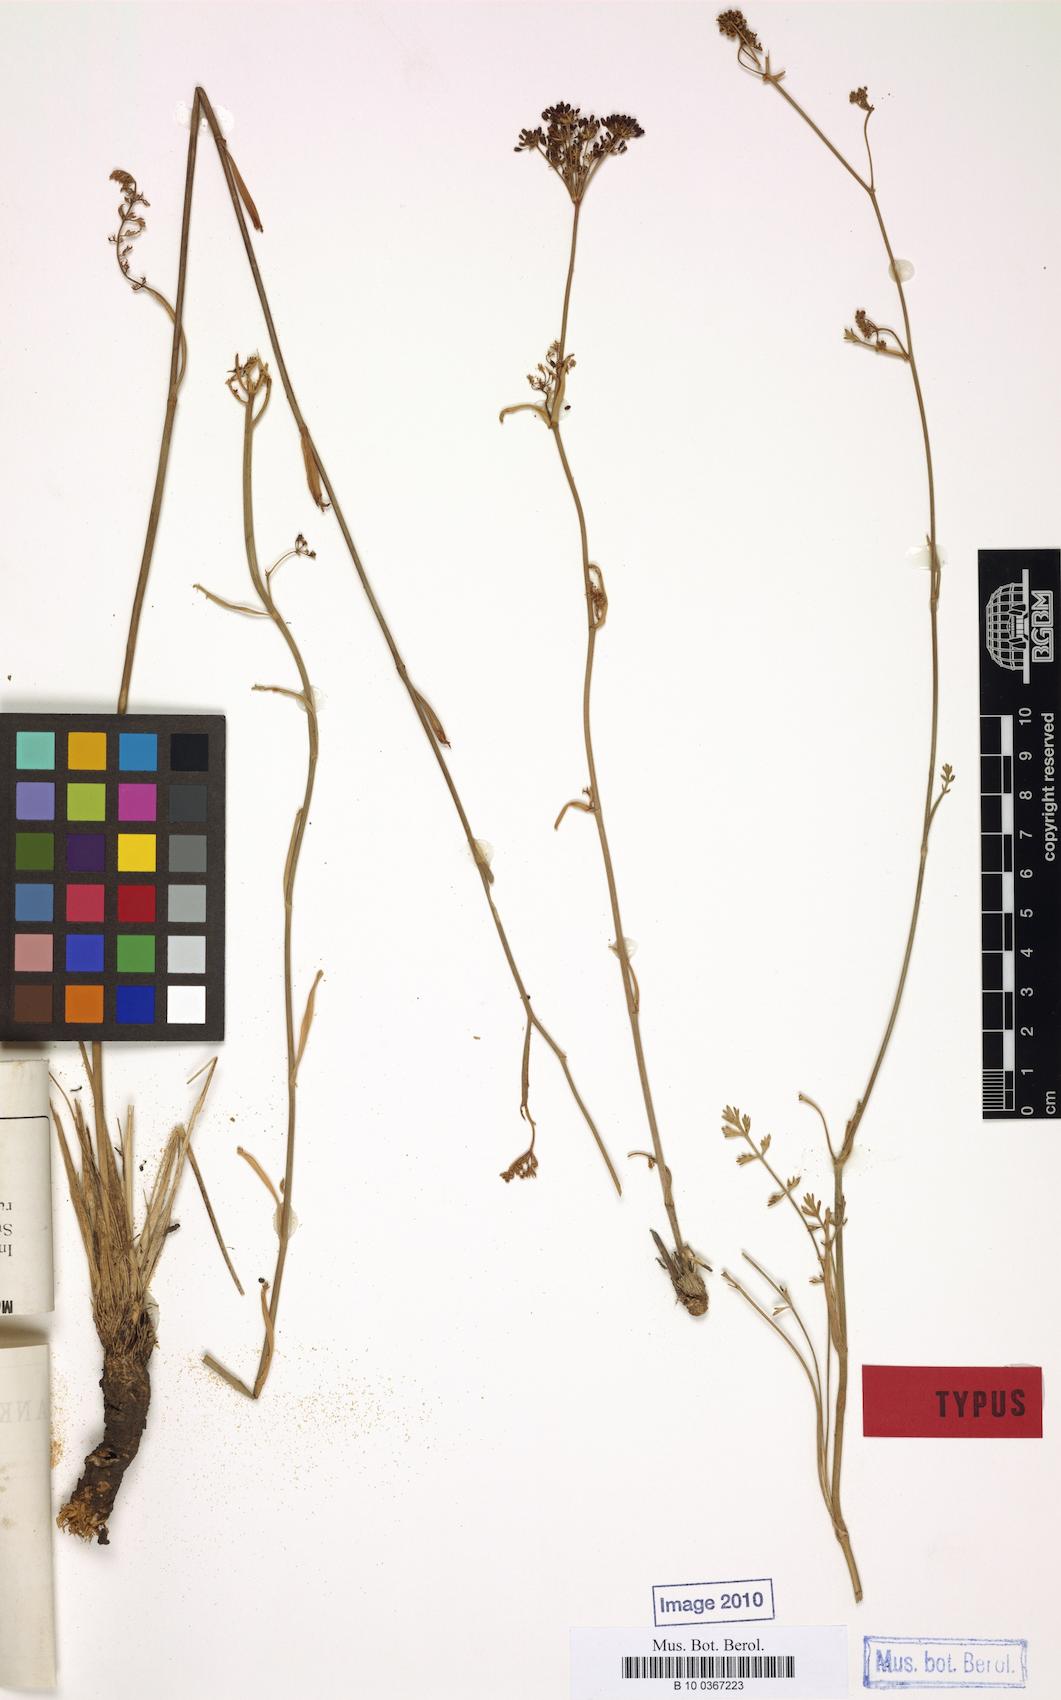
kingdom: Plantae
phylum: Tracheophyta
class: Magnoliopsida
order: Apiales
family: Apiaceae
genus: Dichoropetalum
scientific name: Dichoropetalum minutifolium
